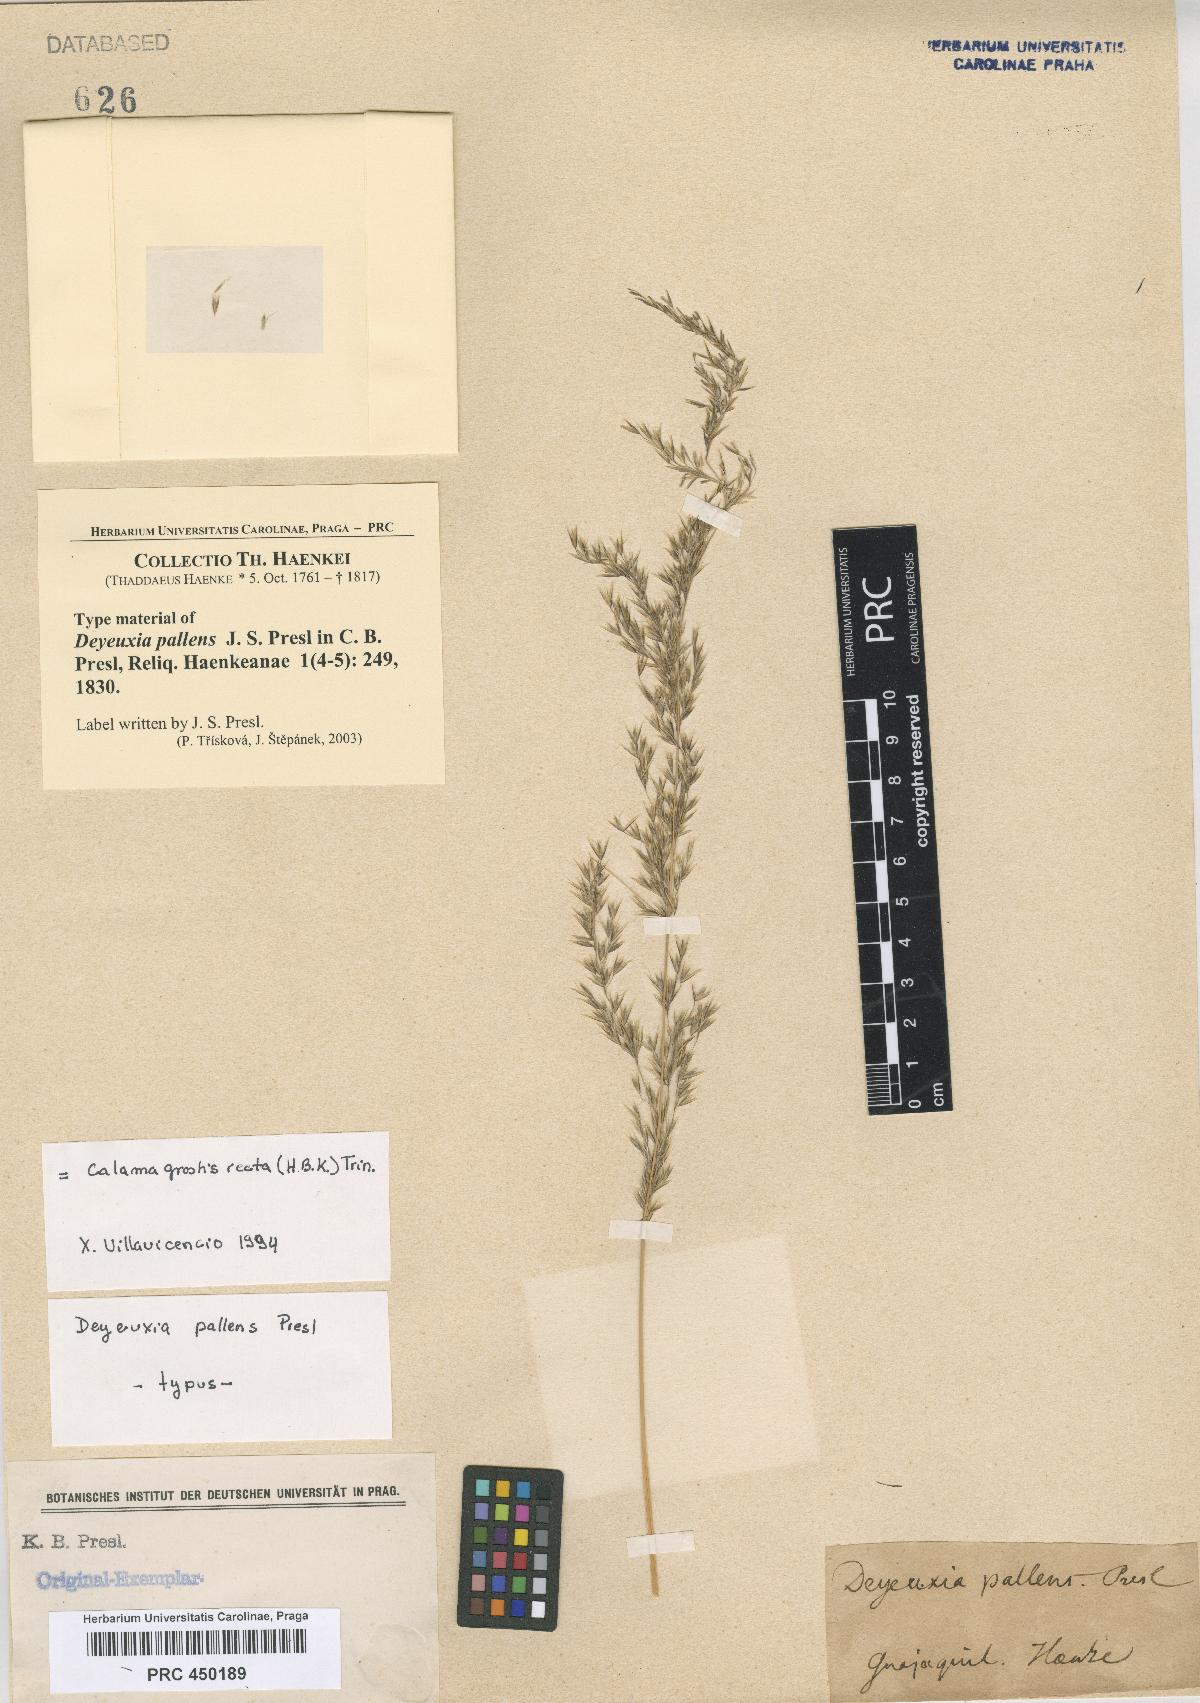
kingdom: Plantae
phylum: Tracheophyta
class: Liliopsida
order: Poales
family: Poaceae
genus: Cinnagrostis
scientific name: Cinnagrostis recta
